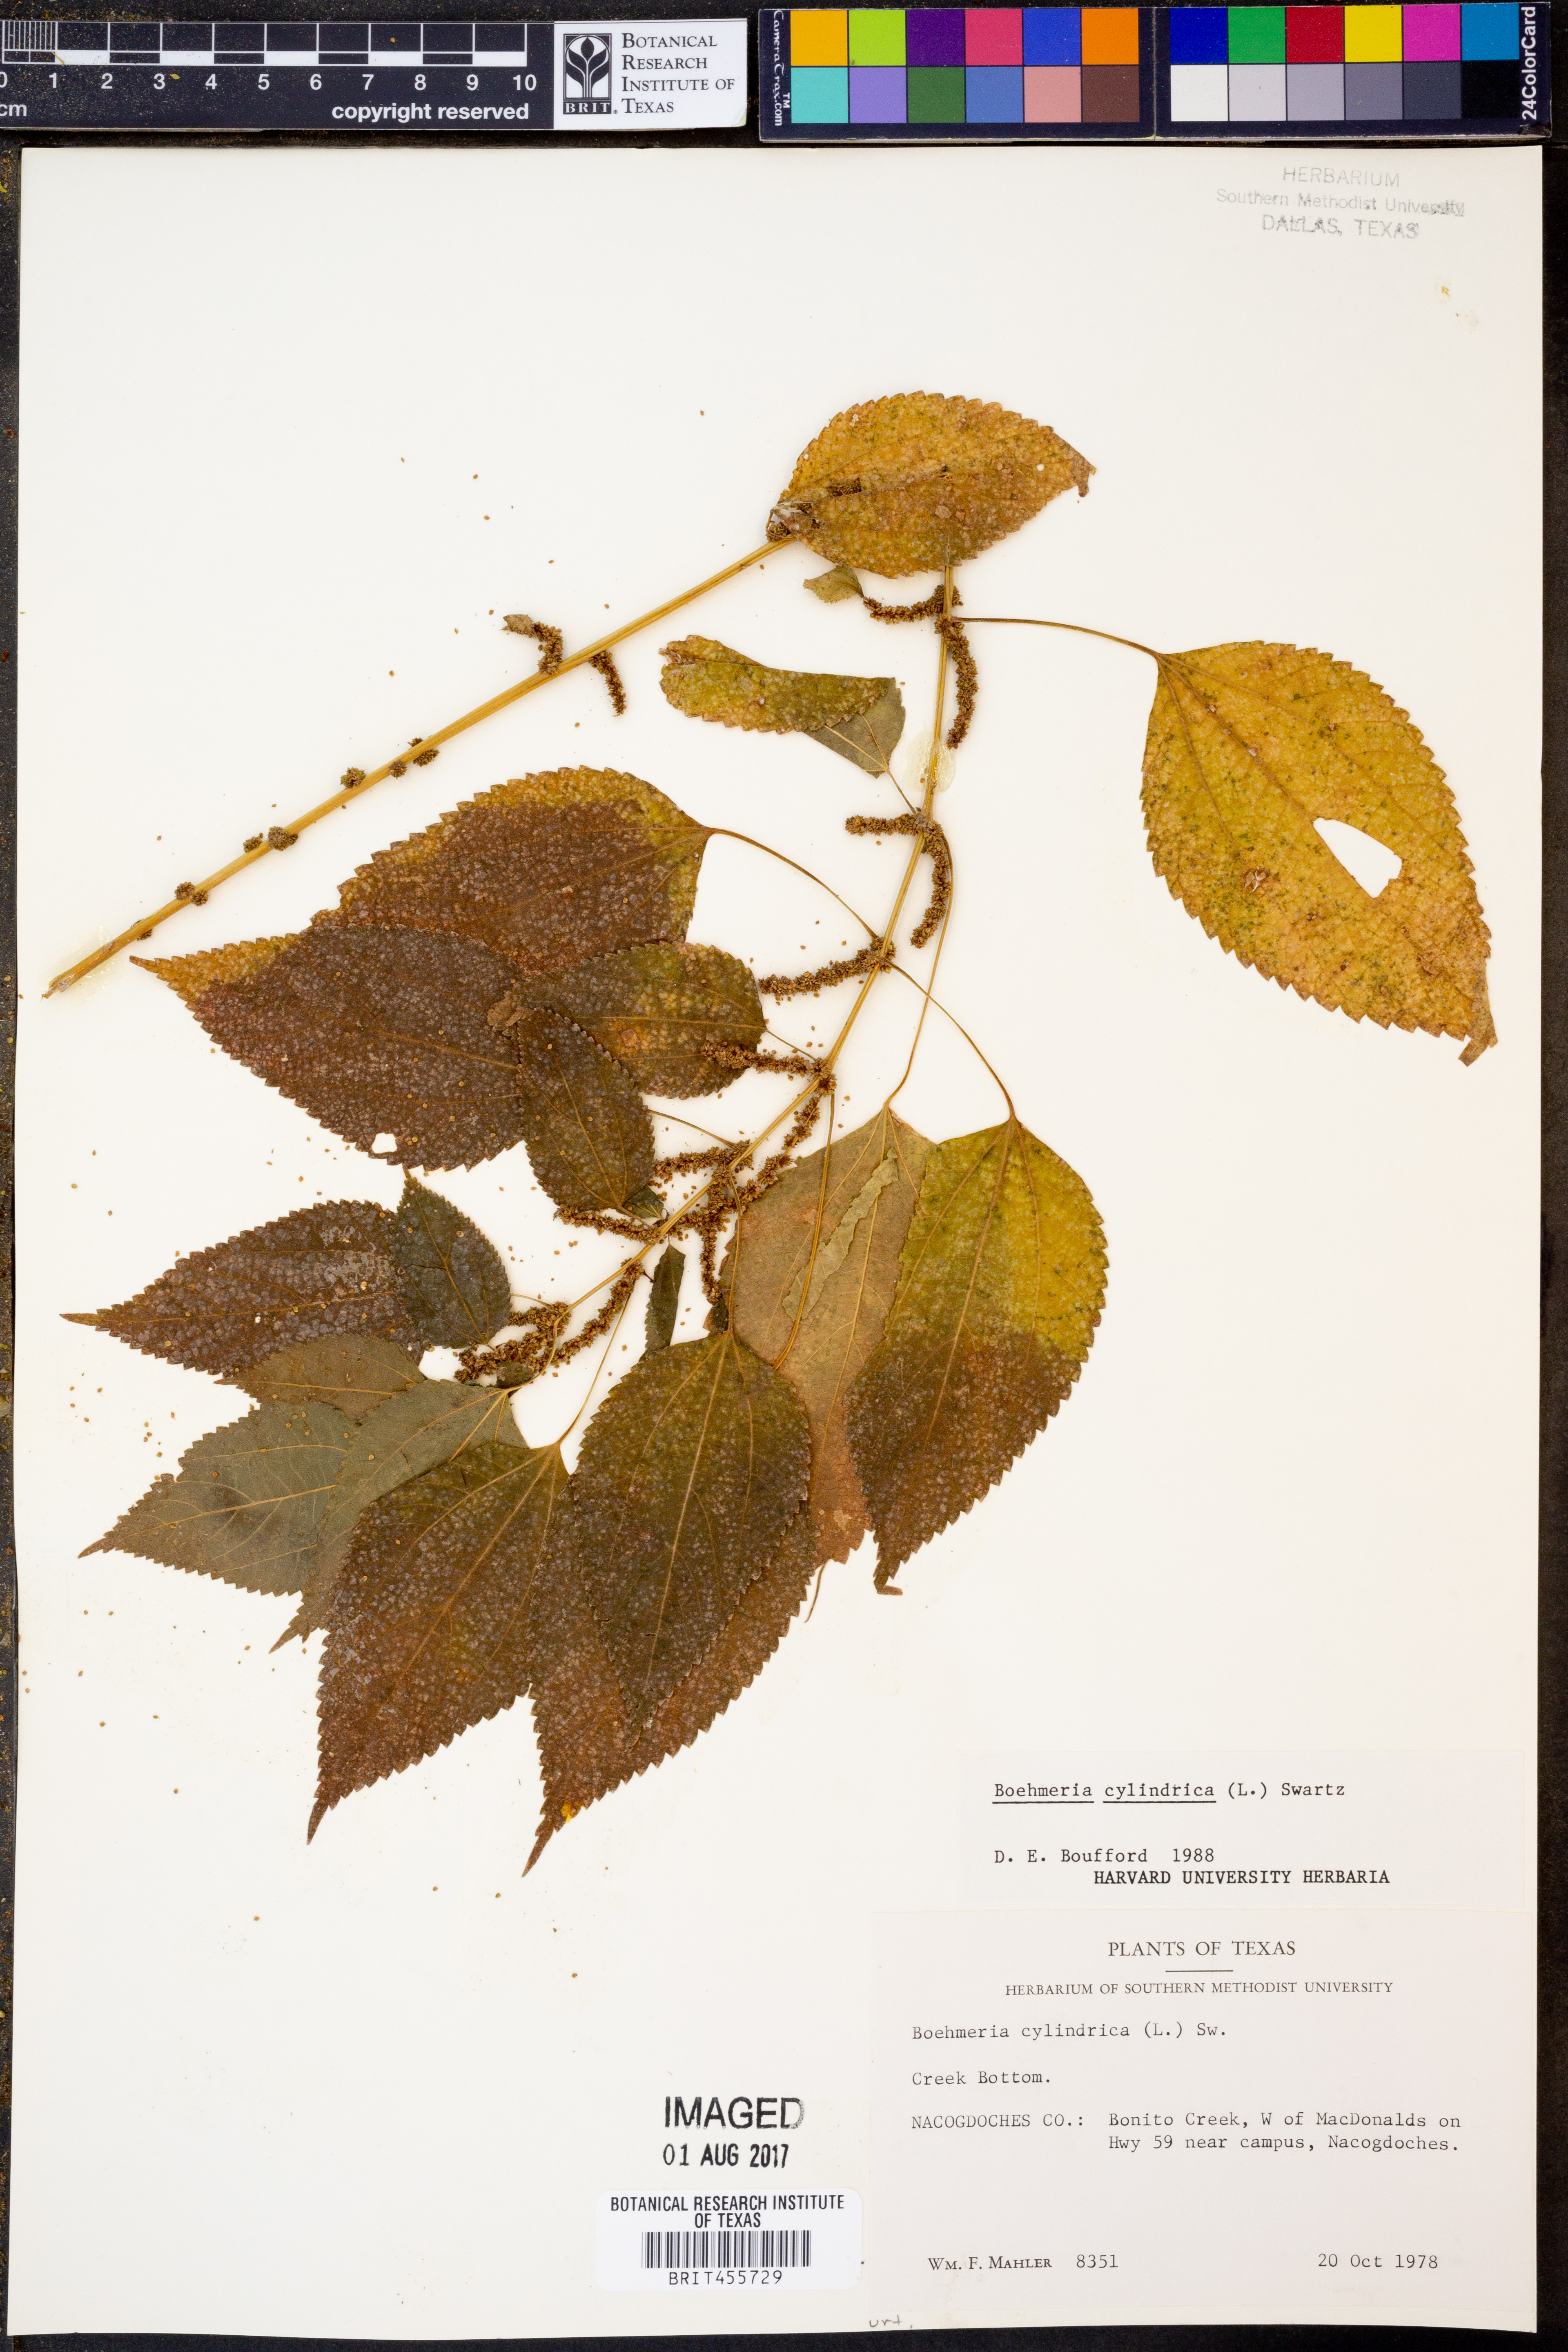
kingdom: Plantae
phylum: Tracheophyta
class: Magnoliopsida
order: Rosales
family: Urticaceae
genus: Boehmeria
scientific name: Boehmeria cylindrica
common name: Bog-hemp
